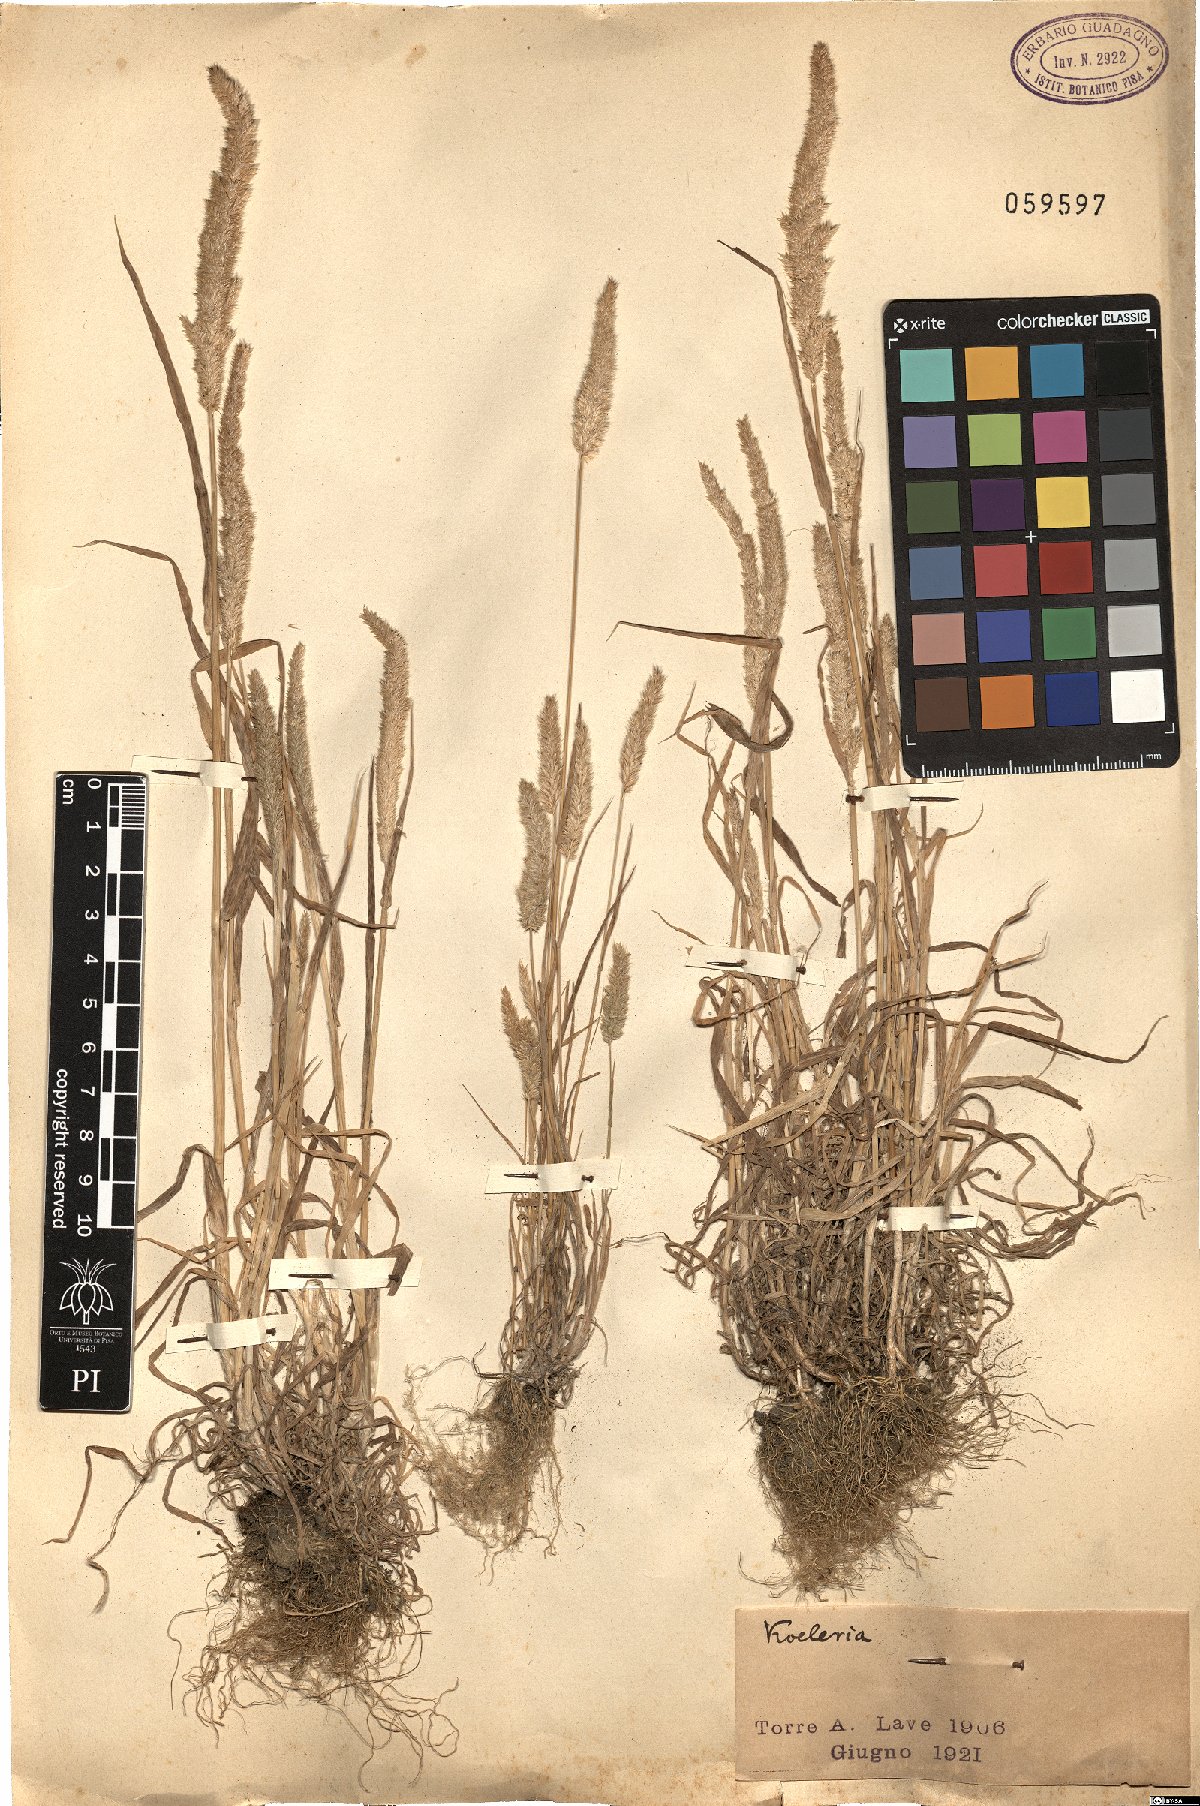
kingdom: Plantae
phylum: Tracheophyta
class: Liliopsida
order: Poales
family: Poaceae
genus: Koeleria
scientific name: Koeleria
